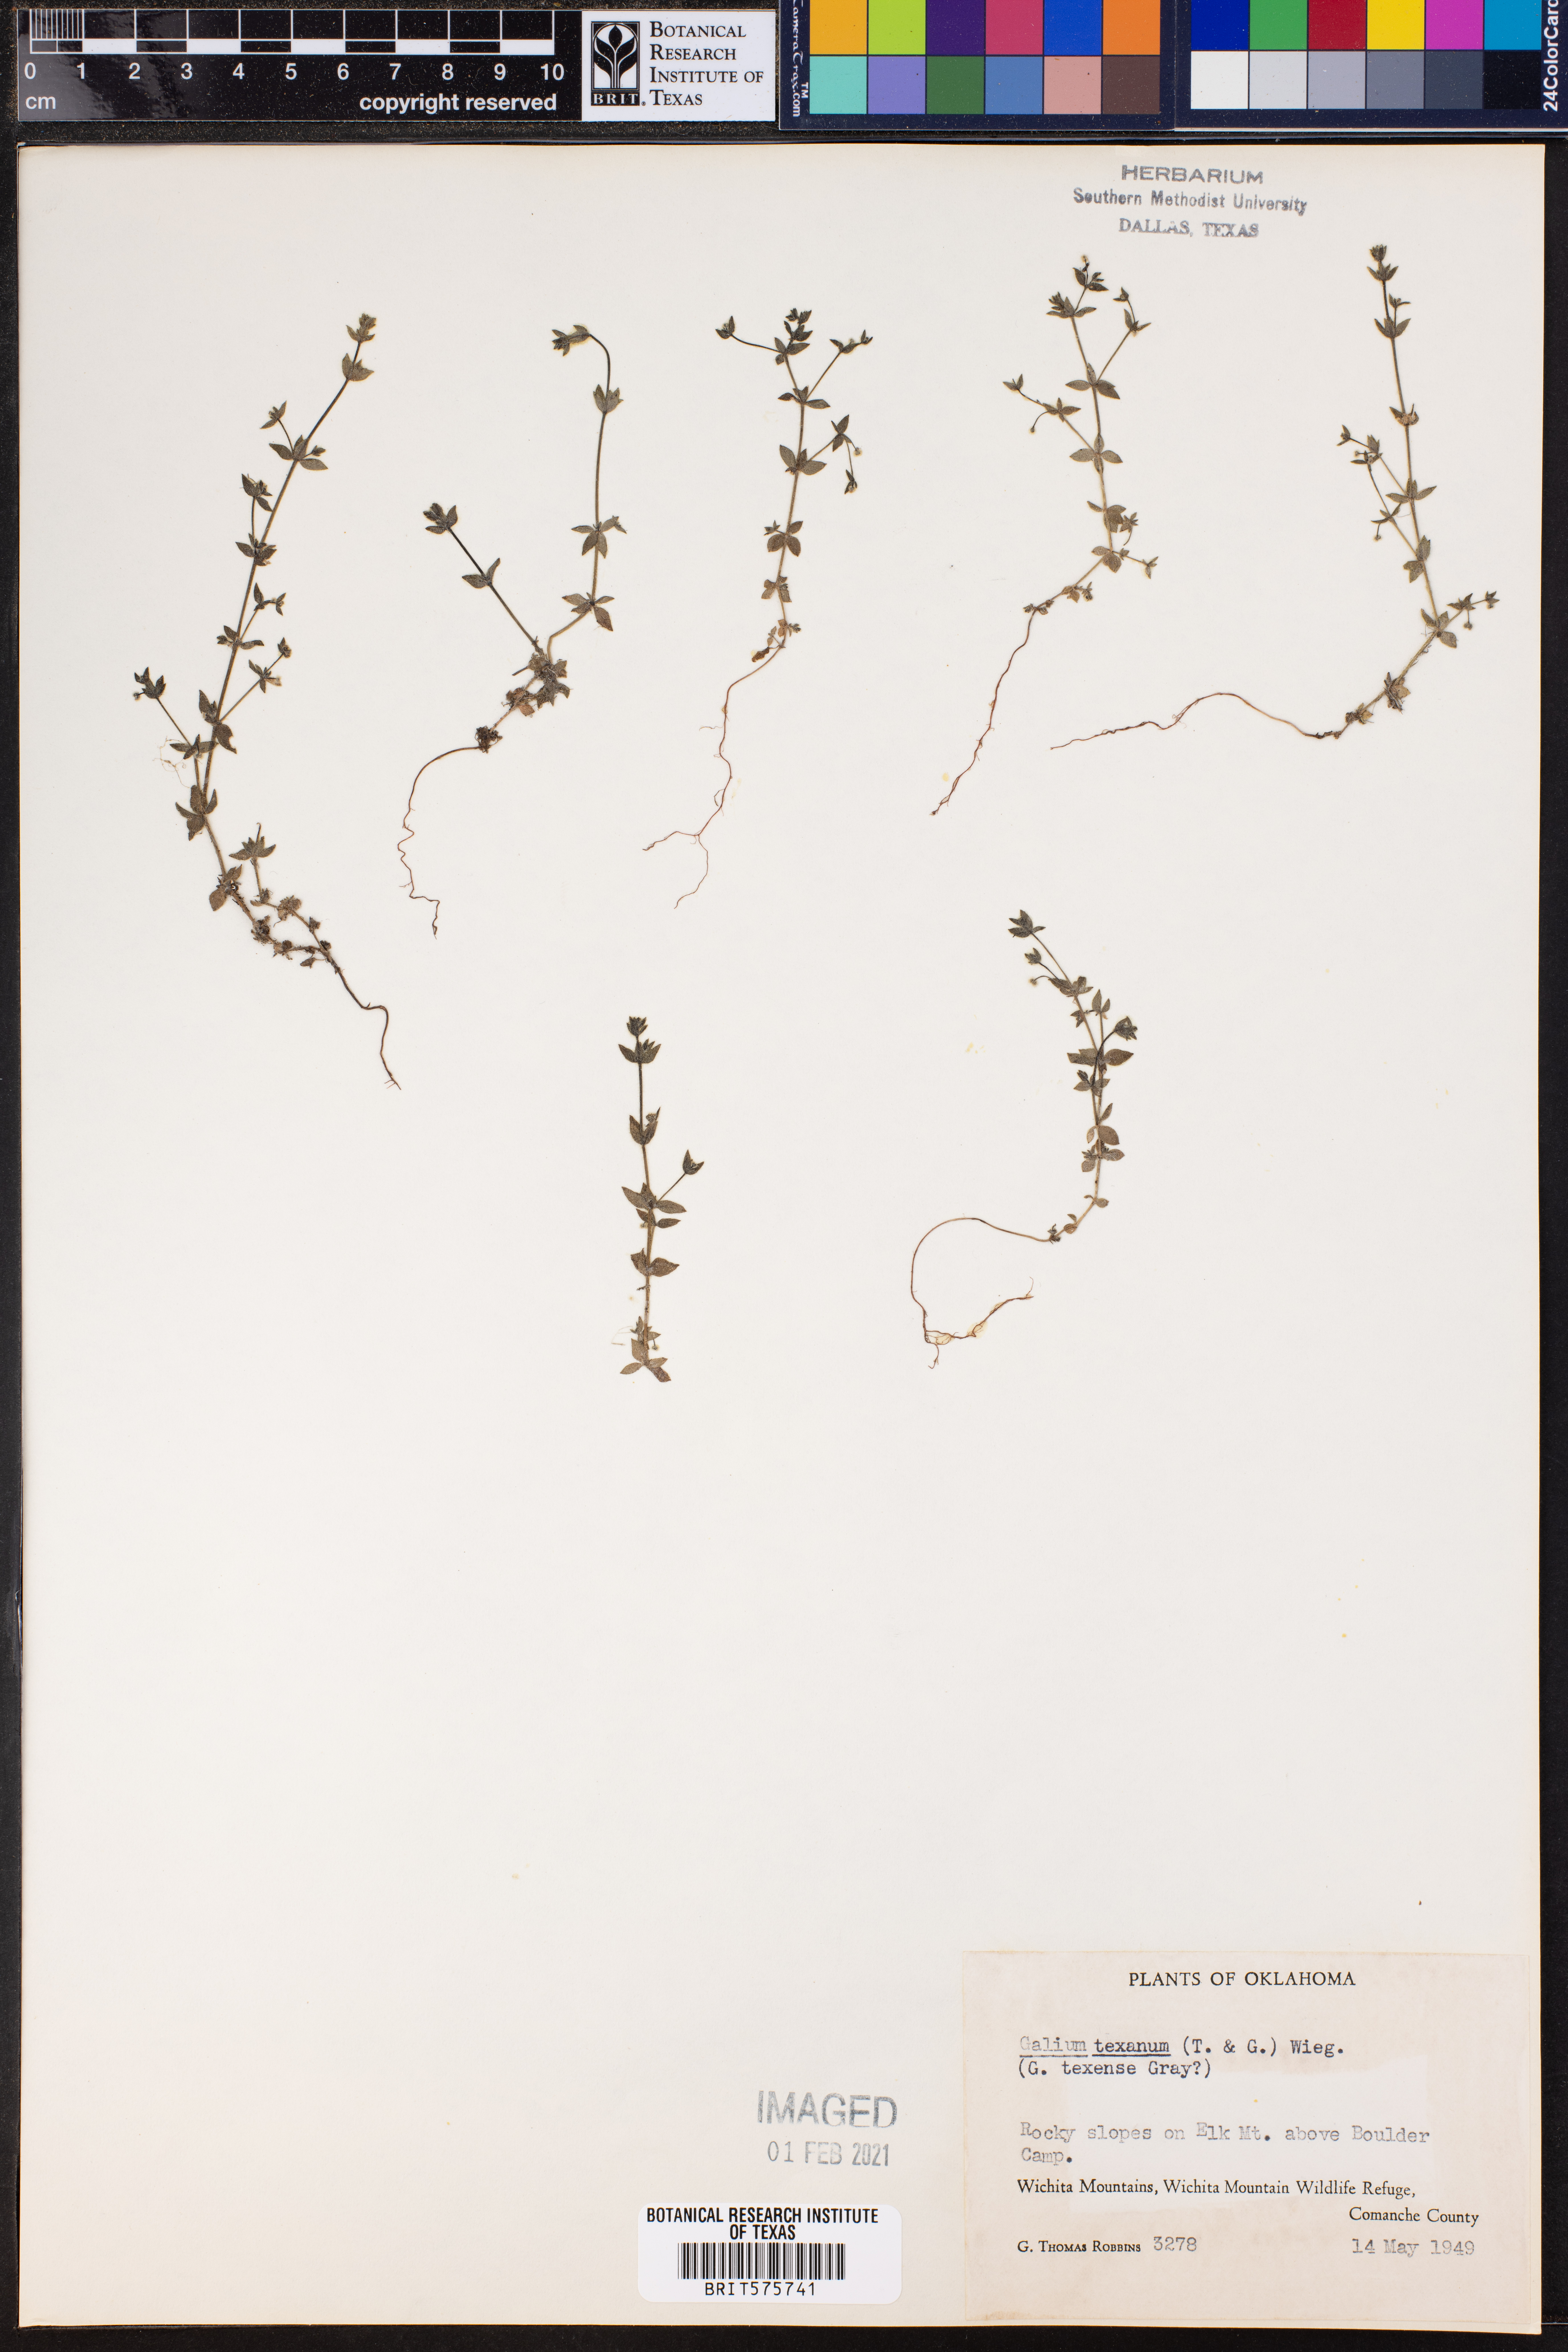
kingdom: Plantae
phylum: Tracheophyta
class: Magnoliopsida
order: Gentianales
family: Rubiaceae
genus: Galium
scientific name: Galium texense
